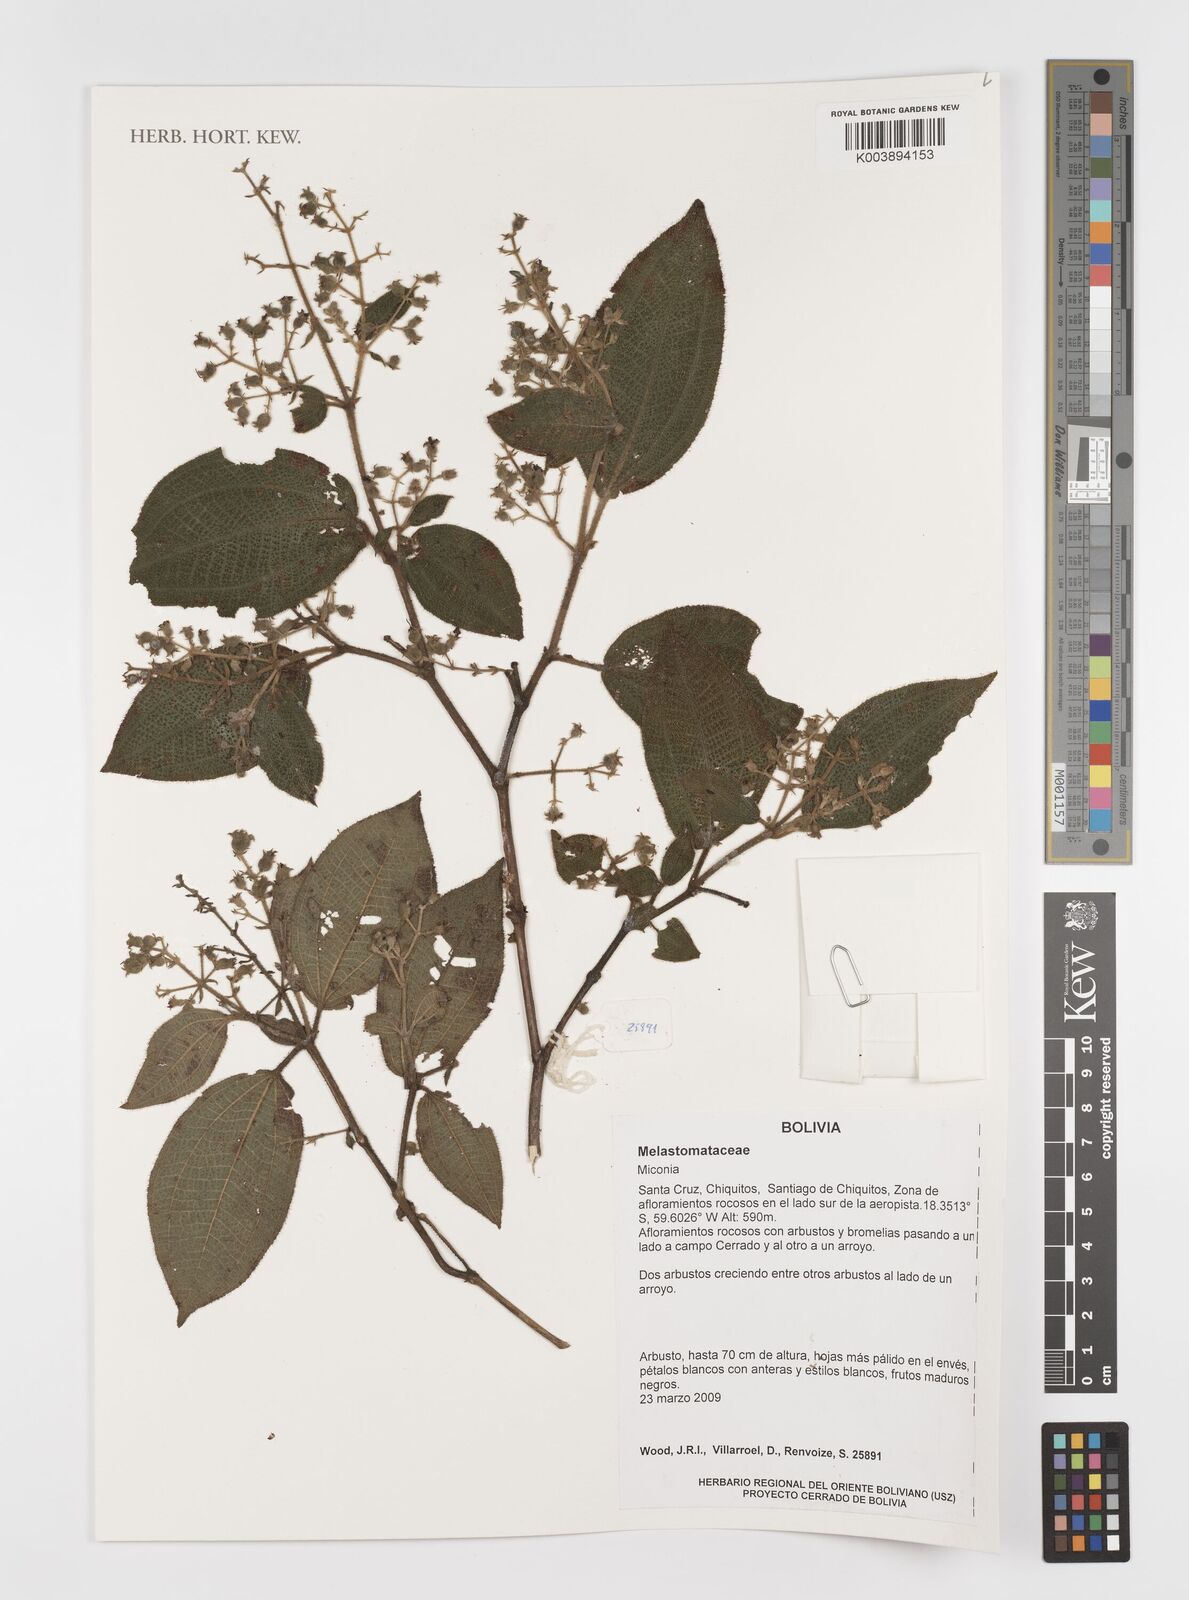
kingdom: Plantae
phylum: Tracheophyta
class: Magnoliopsida
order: Myrtales
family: Melastomataceae
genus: Miconia
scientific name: Miconia
